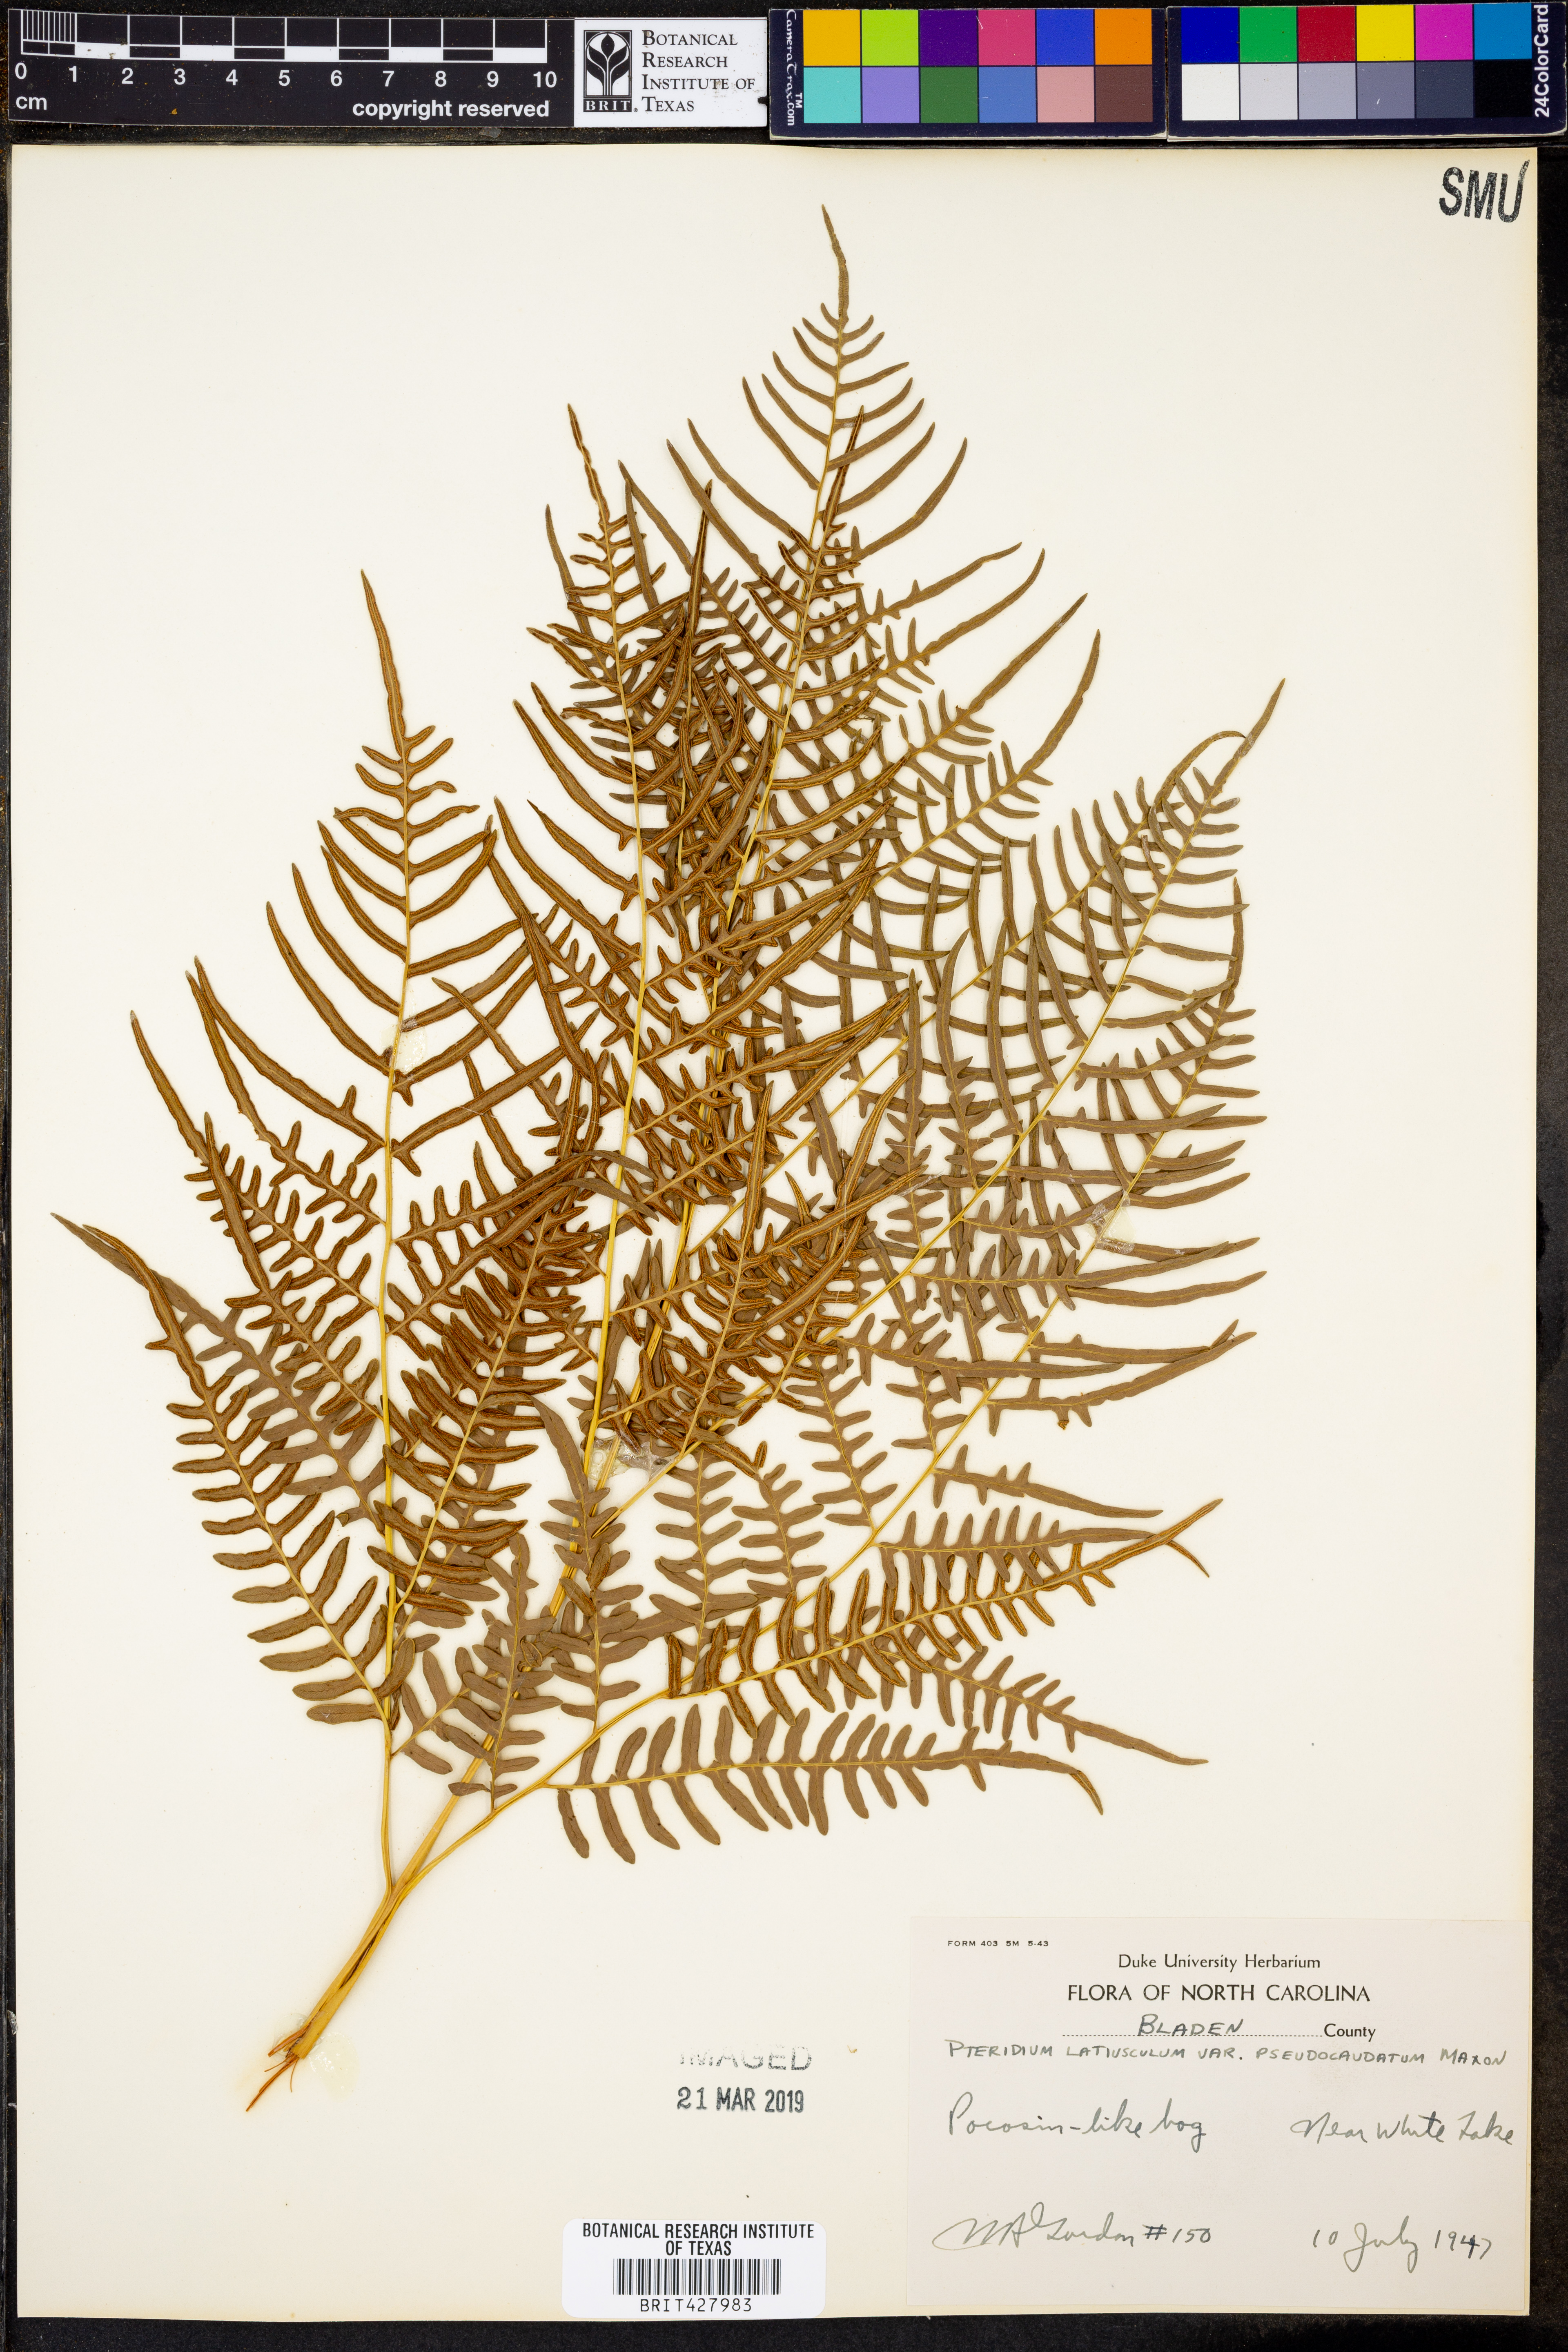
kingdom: Plantae
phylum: Tracheophyta
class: Polypodiopsida
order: Polypodiales
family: Dennstaedtiaceae
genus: Pteridium
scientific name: Pteridium aquilinum
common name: Bracken
